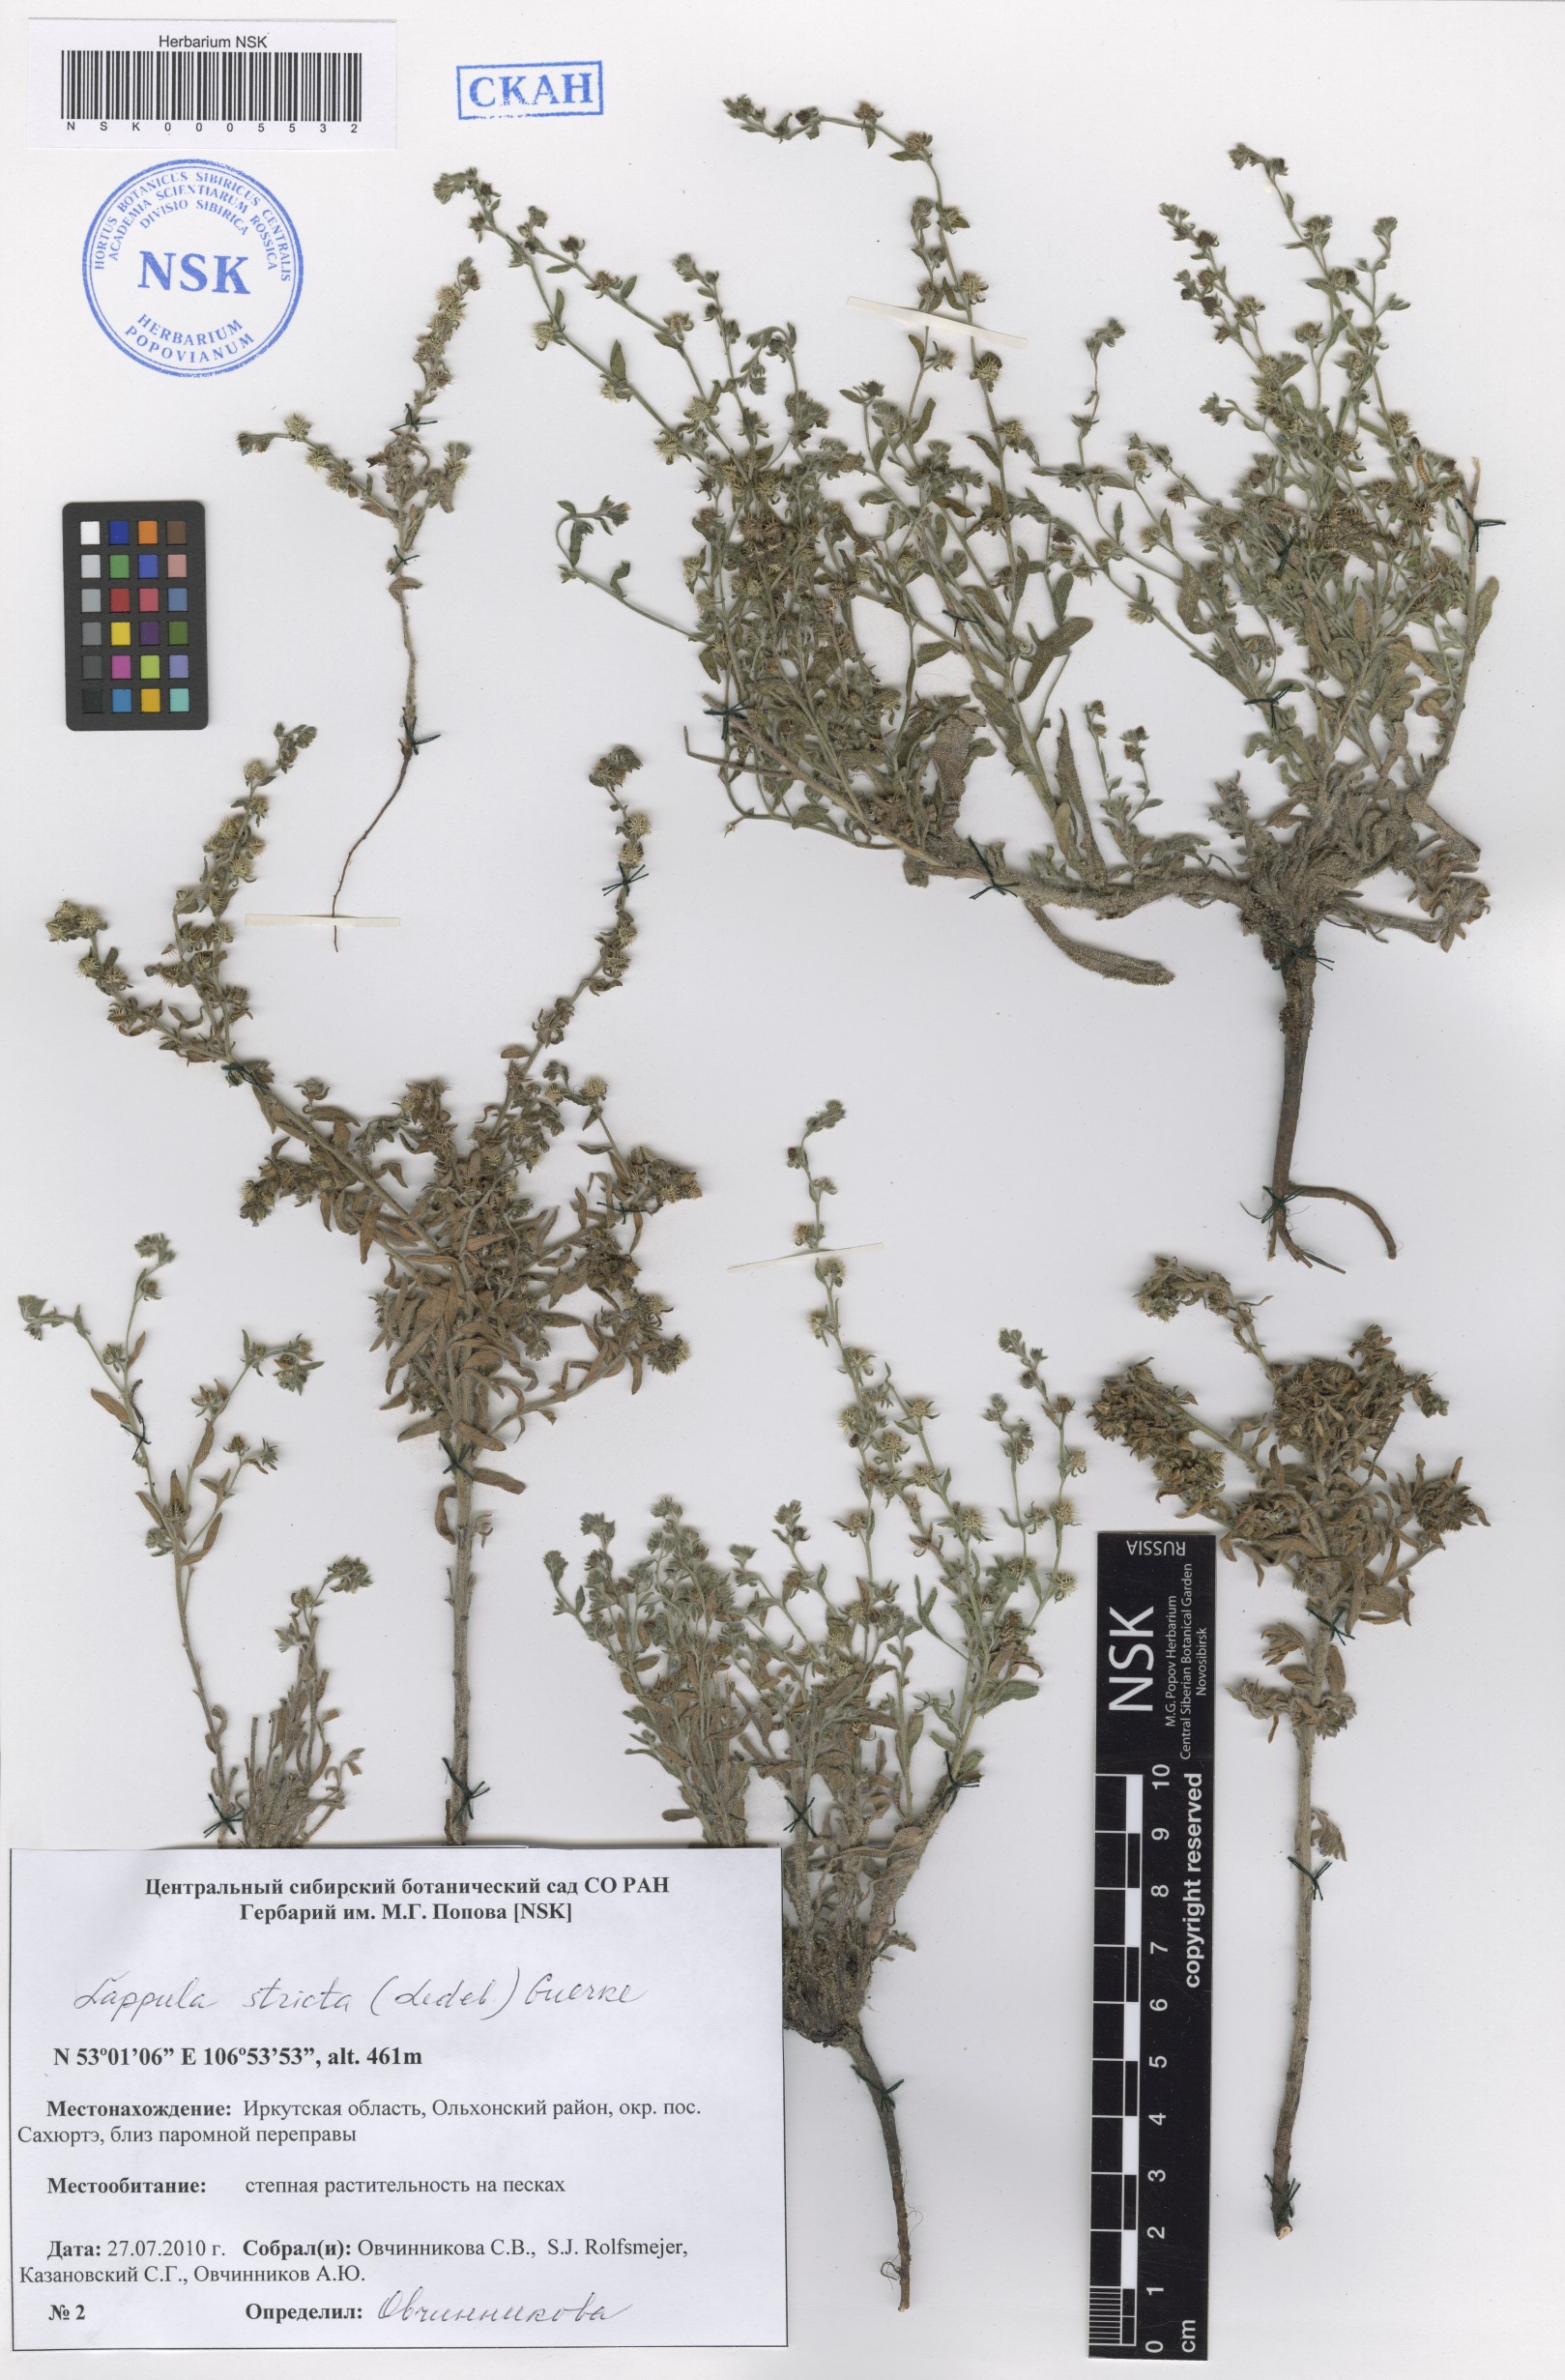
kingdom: Plantae
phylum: Tracheophyta
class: Magnoliopsida
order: Boraginales
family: Boraginaceae
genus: Lappula
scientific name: Lappula stricta
